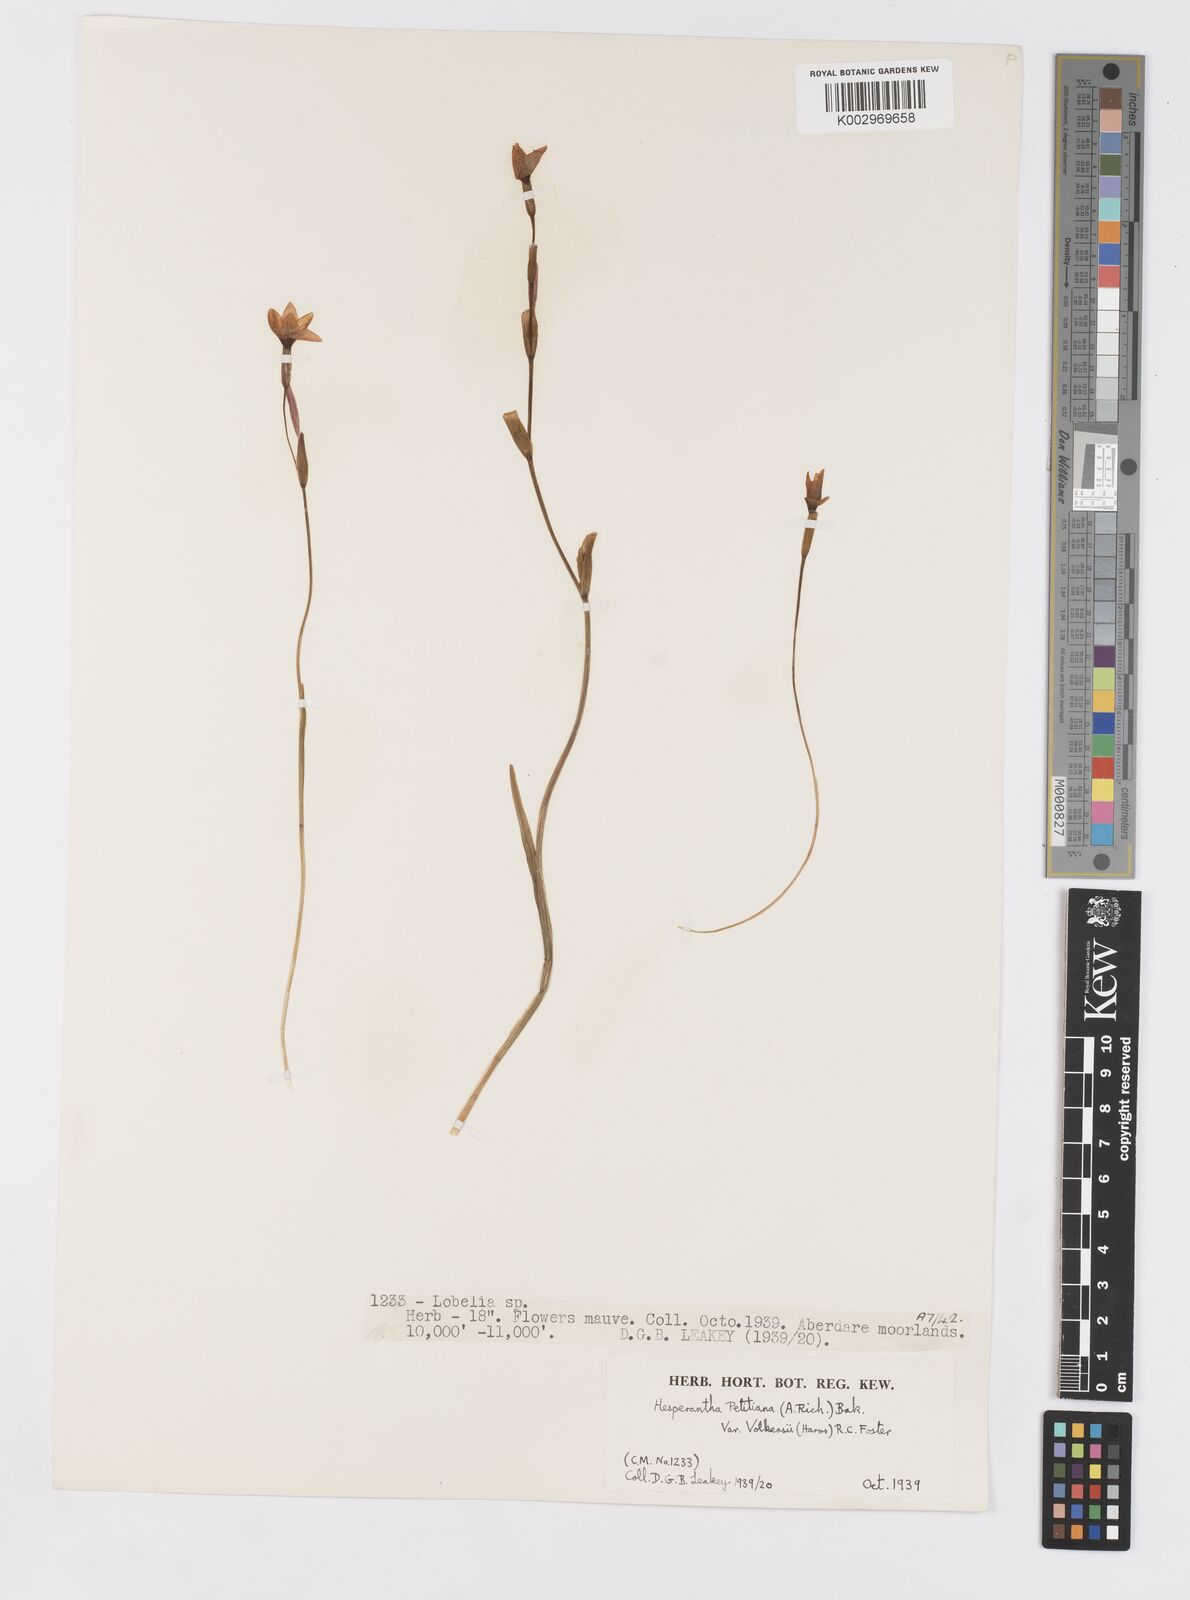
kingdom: Plantae
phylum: Tracheophyta
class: Liliopsida
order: Asparagales
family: Iridaceae
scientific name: Iridaceae
